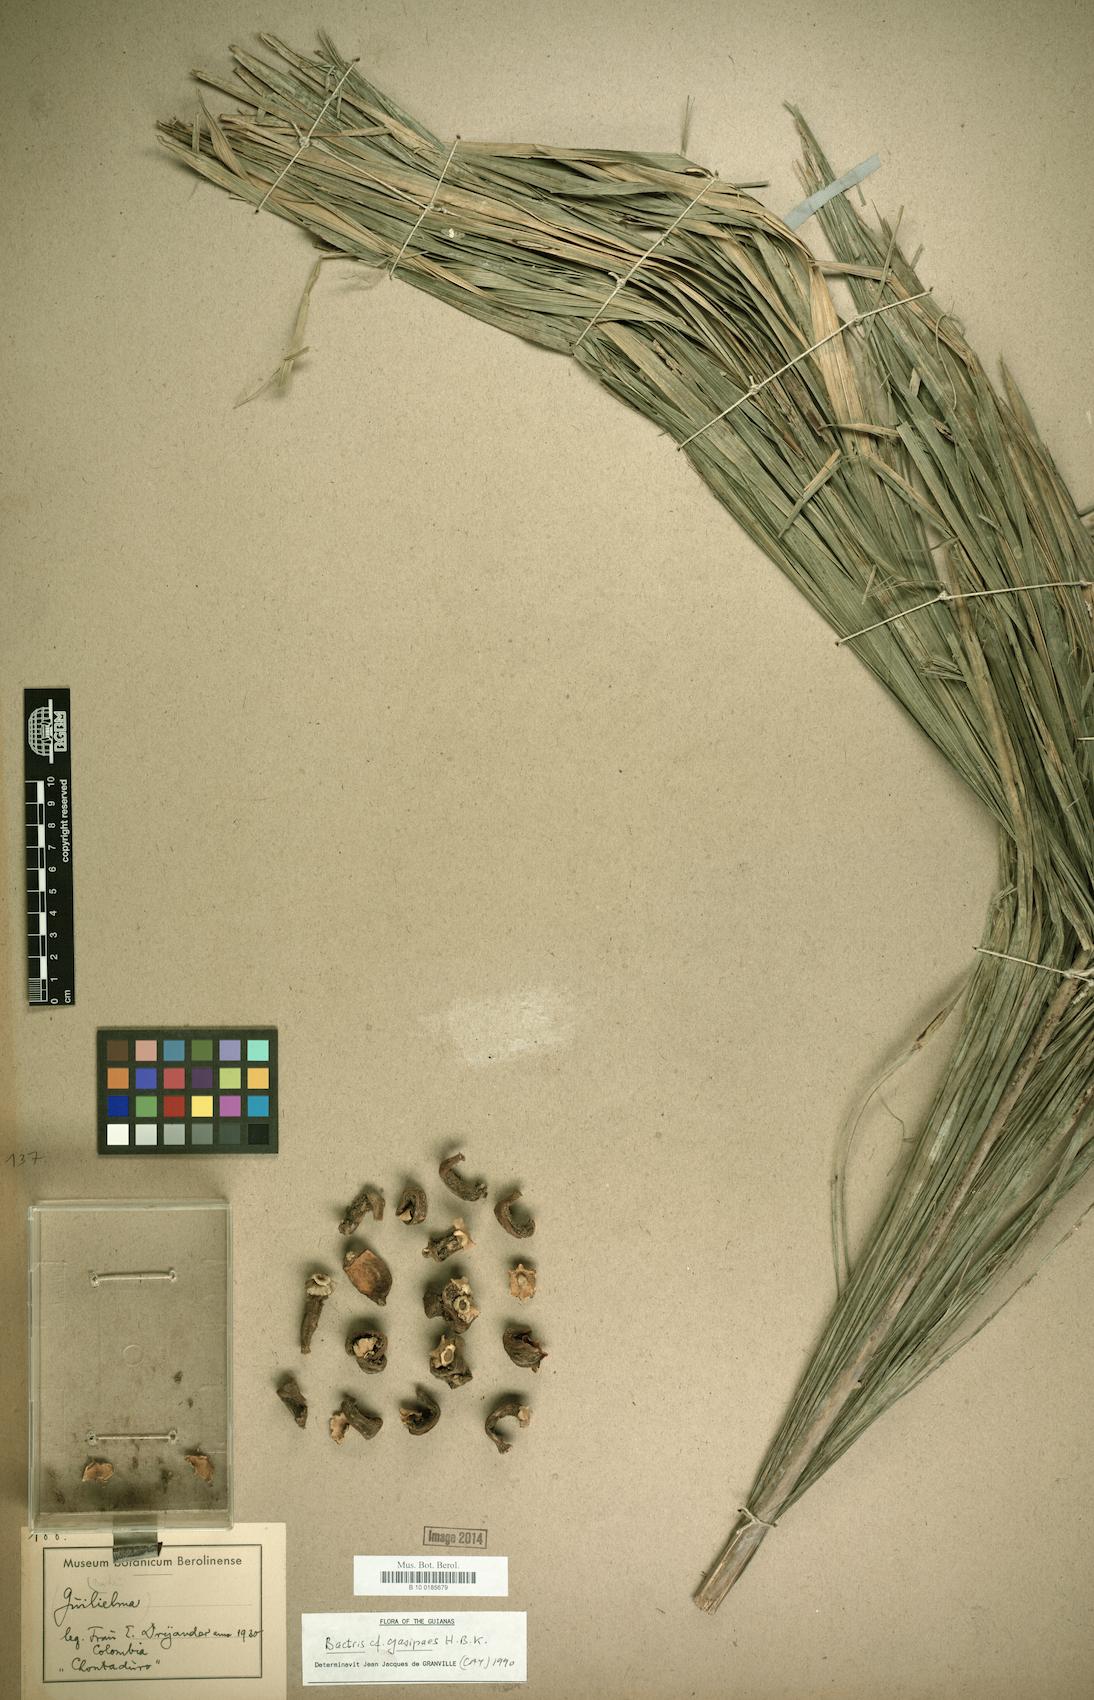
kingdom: Plantae
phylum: Tracheophyta
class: Liliopsida
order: Arecales
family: Arecaceae
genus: Bactris
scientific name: Bactris gasipaes
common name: Peach palm
